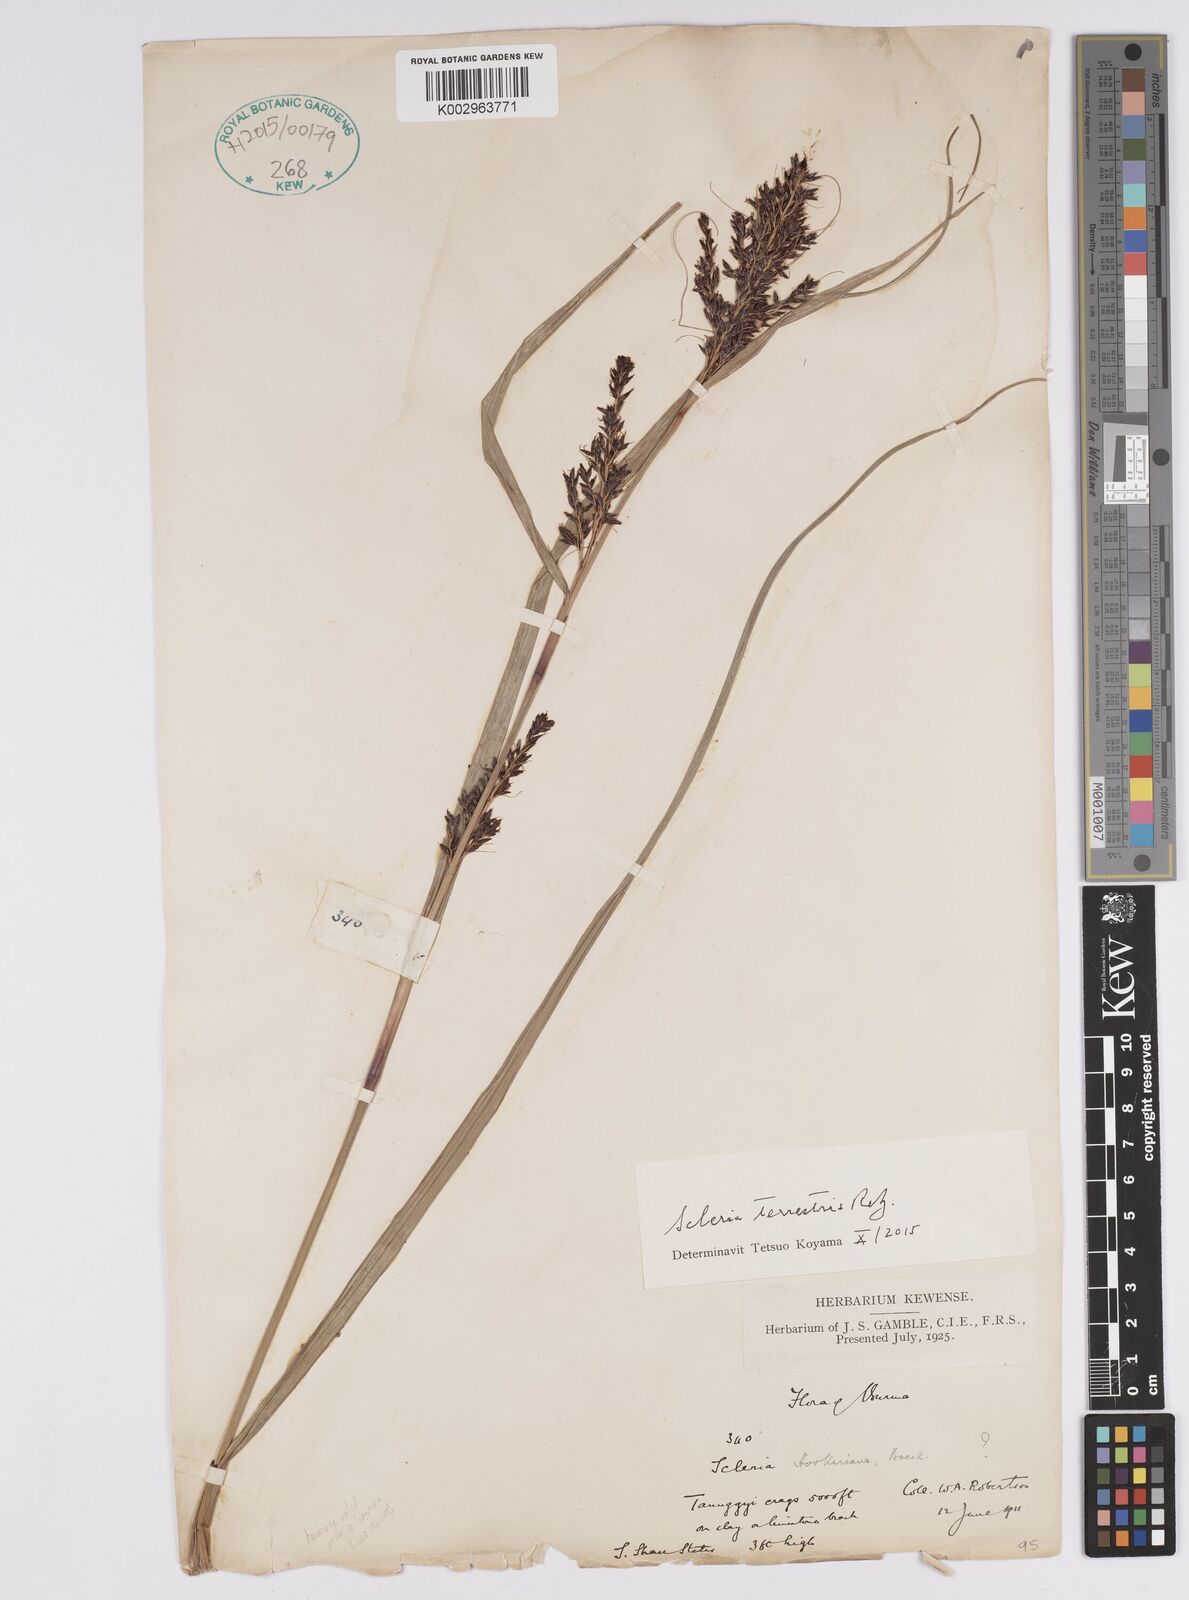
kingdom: Plantae
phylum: Tracheophyta
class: Liliopsida
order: Poales
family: Cyperaceae
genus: Scleria
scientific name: Scleria terrestris
